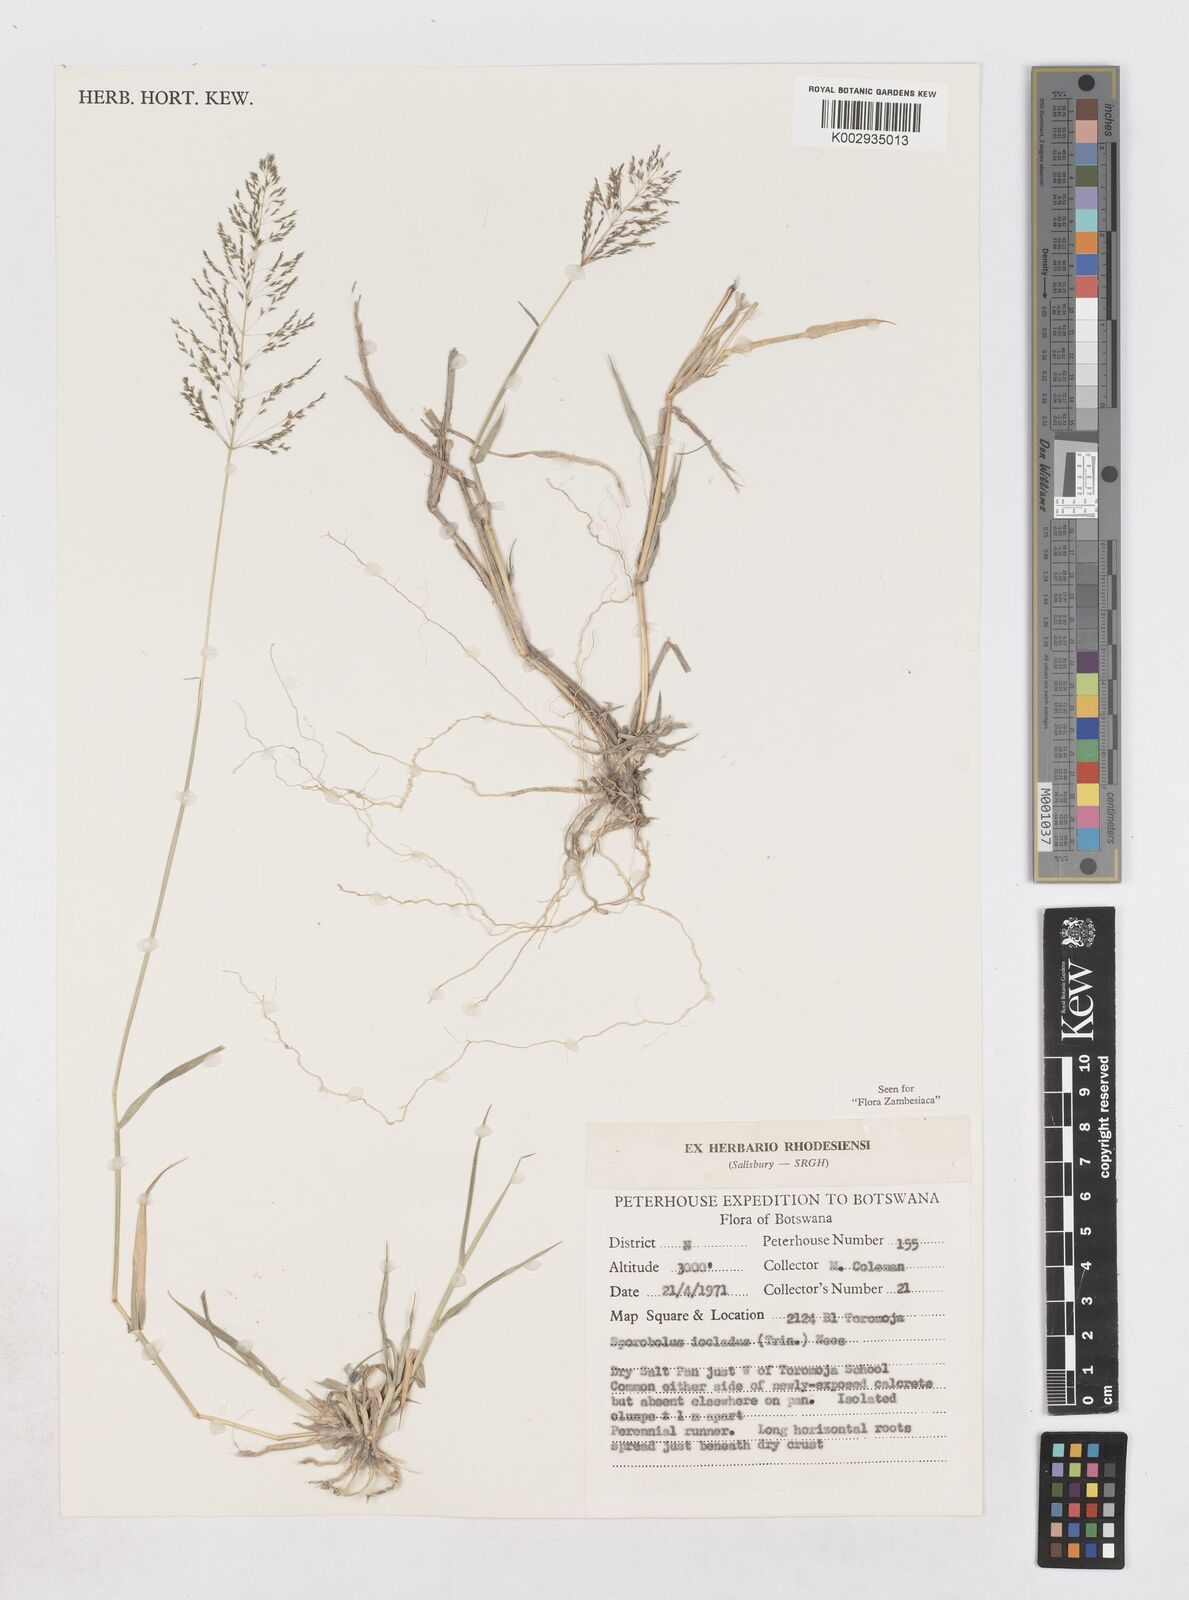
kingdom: Plantae
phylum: Tracheophyta
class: Liliopsida
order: Poales
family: Poaceae
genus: Sporobolus
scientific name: Sporobolus ioclados
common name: Pan dropseed
